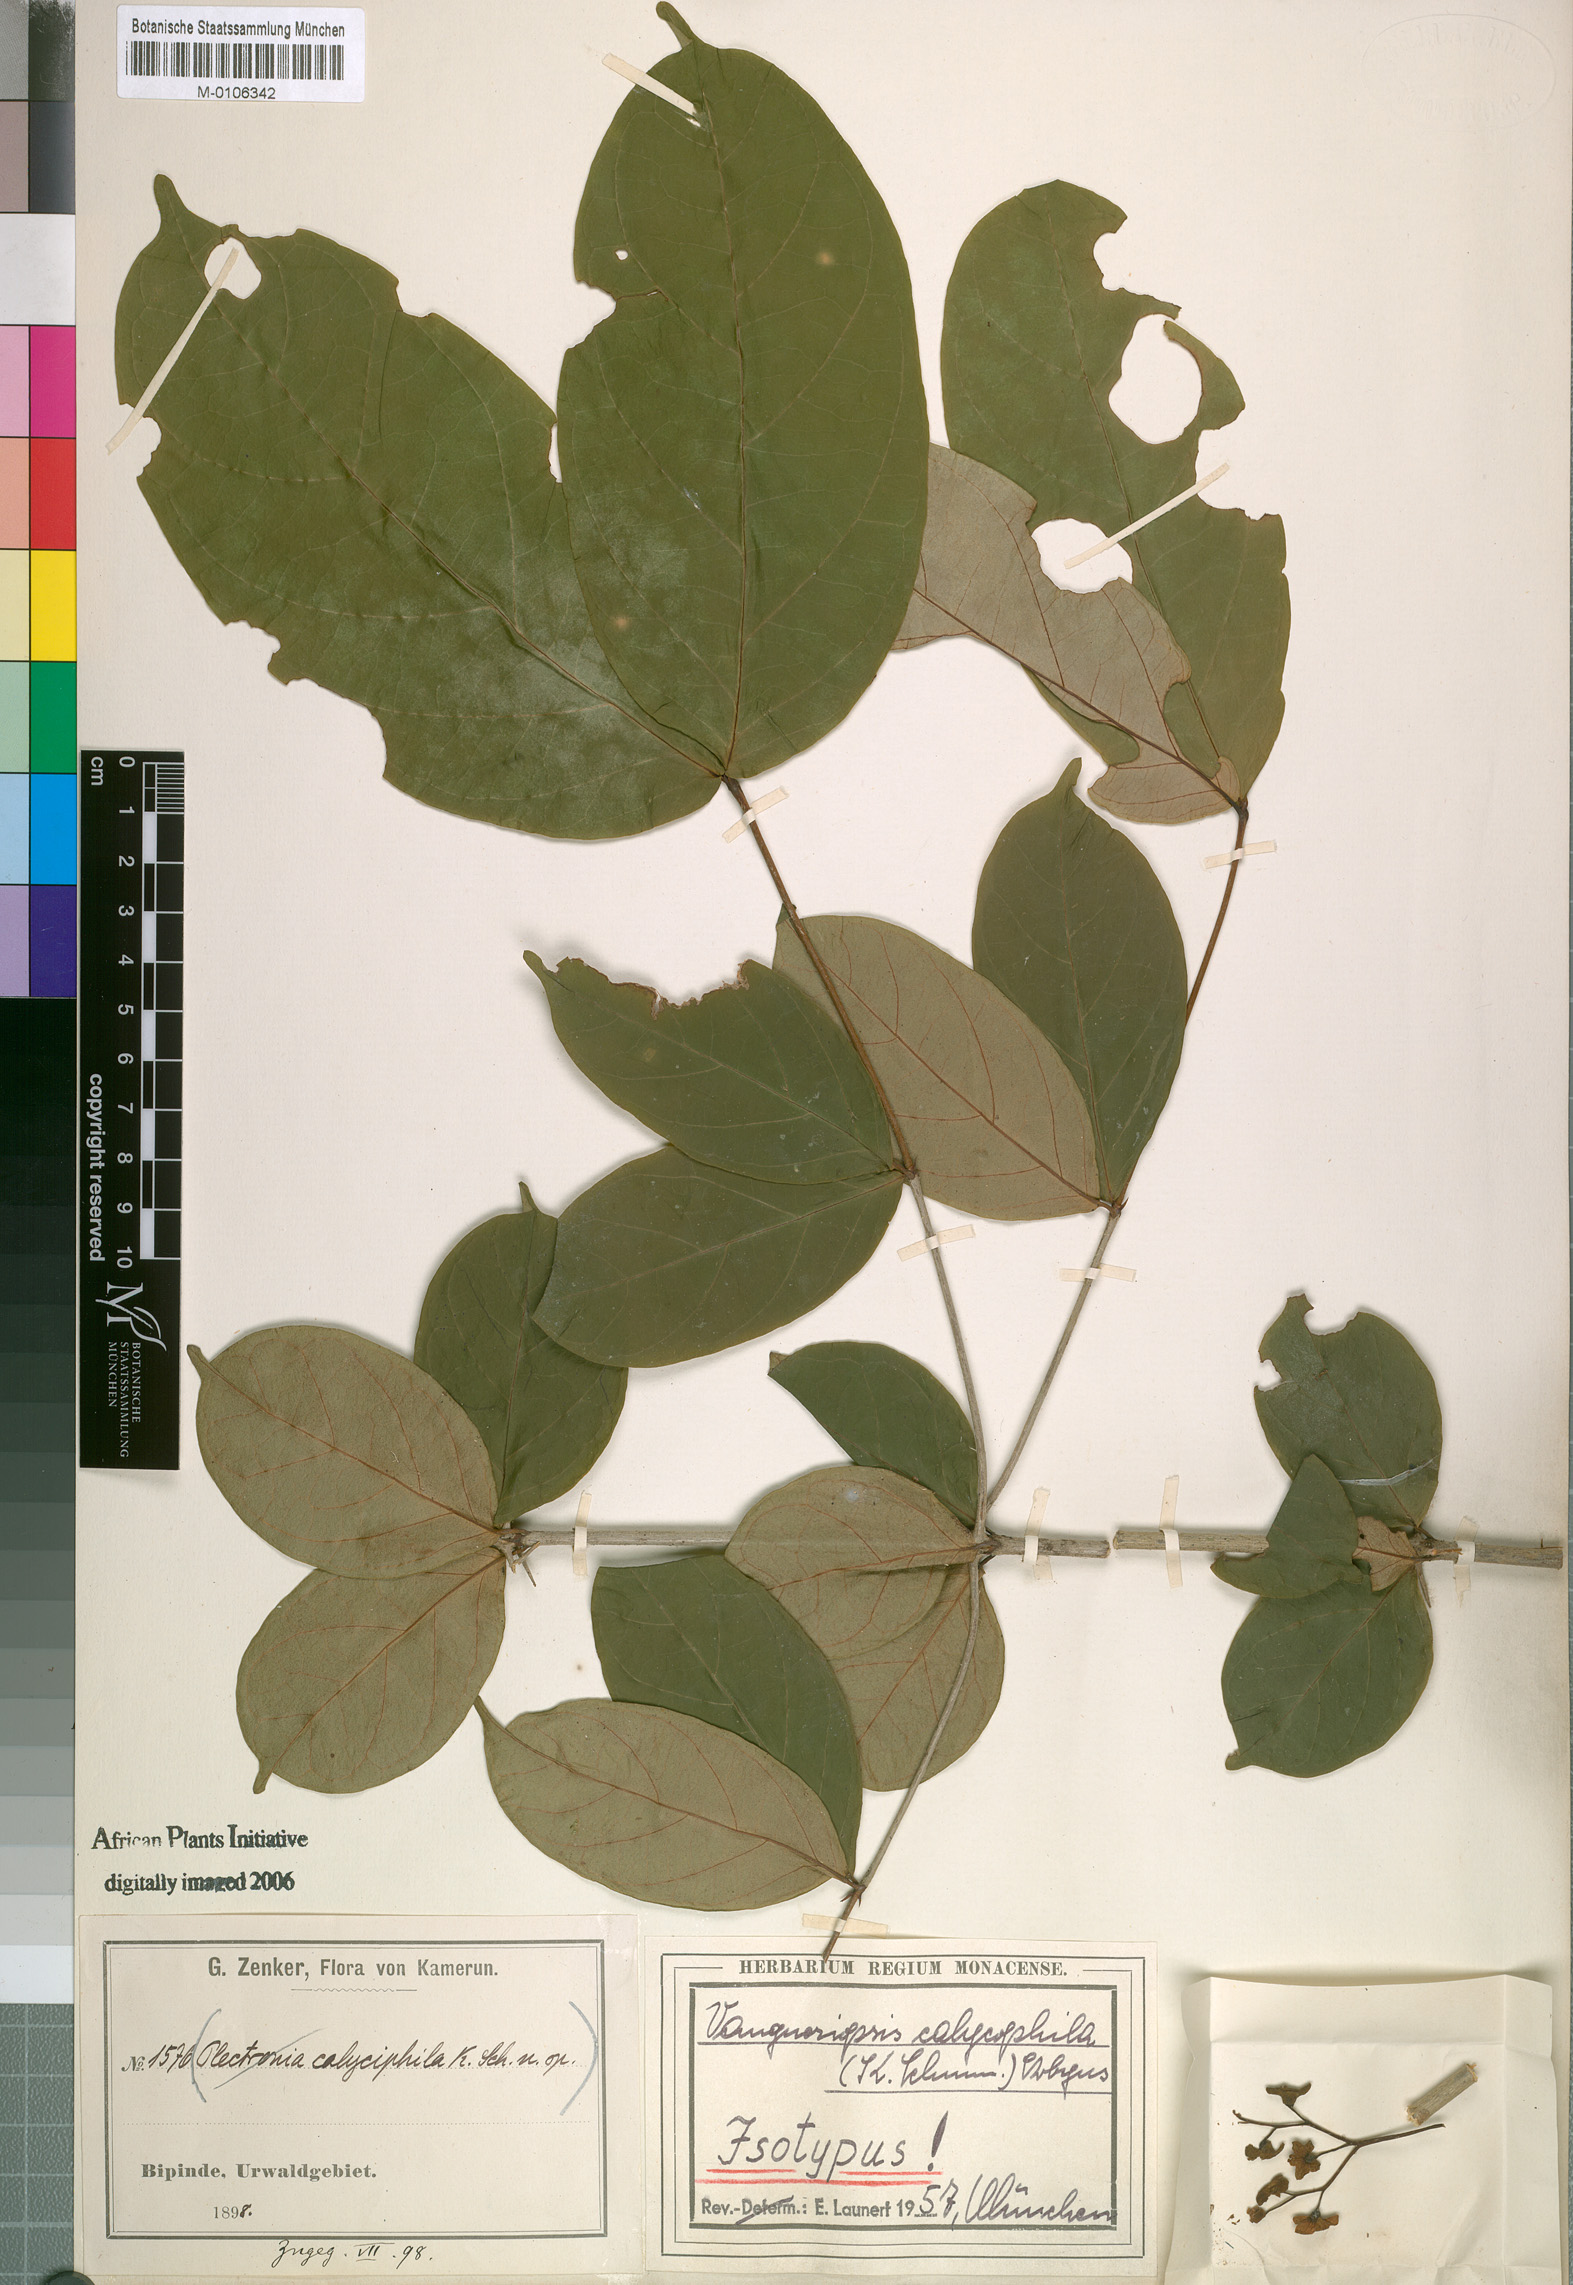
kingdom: Plantae
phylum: Tracheophyta
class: Magnoliopsida
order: Gentianales
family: Rubiaceae
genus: Vangueriella
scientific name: Vangueriella laxiflora
